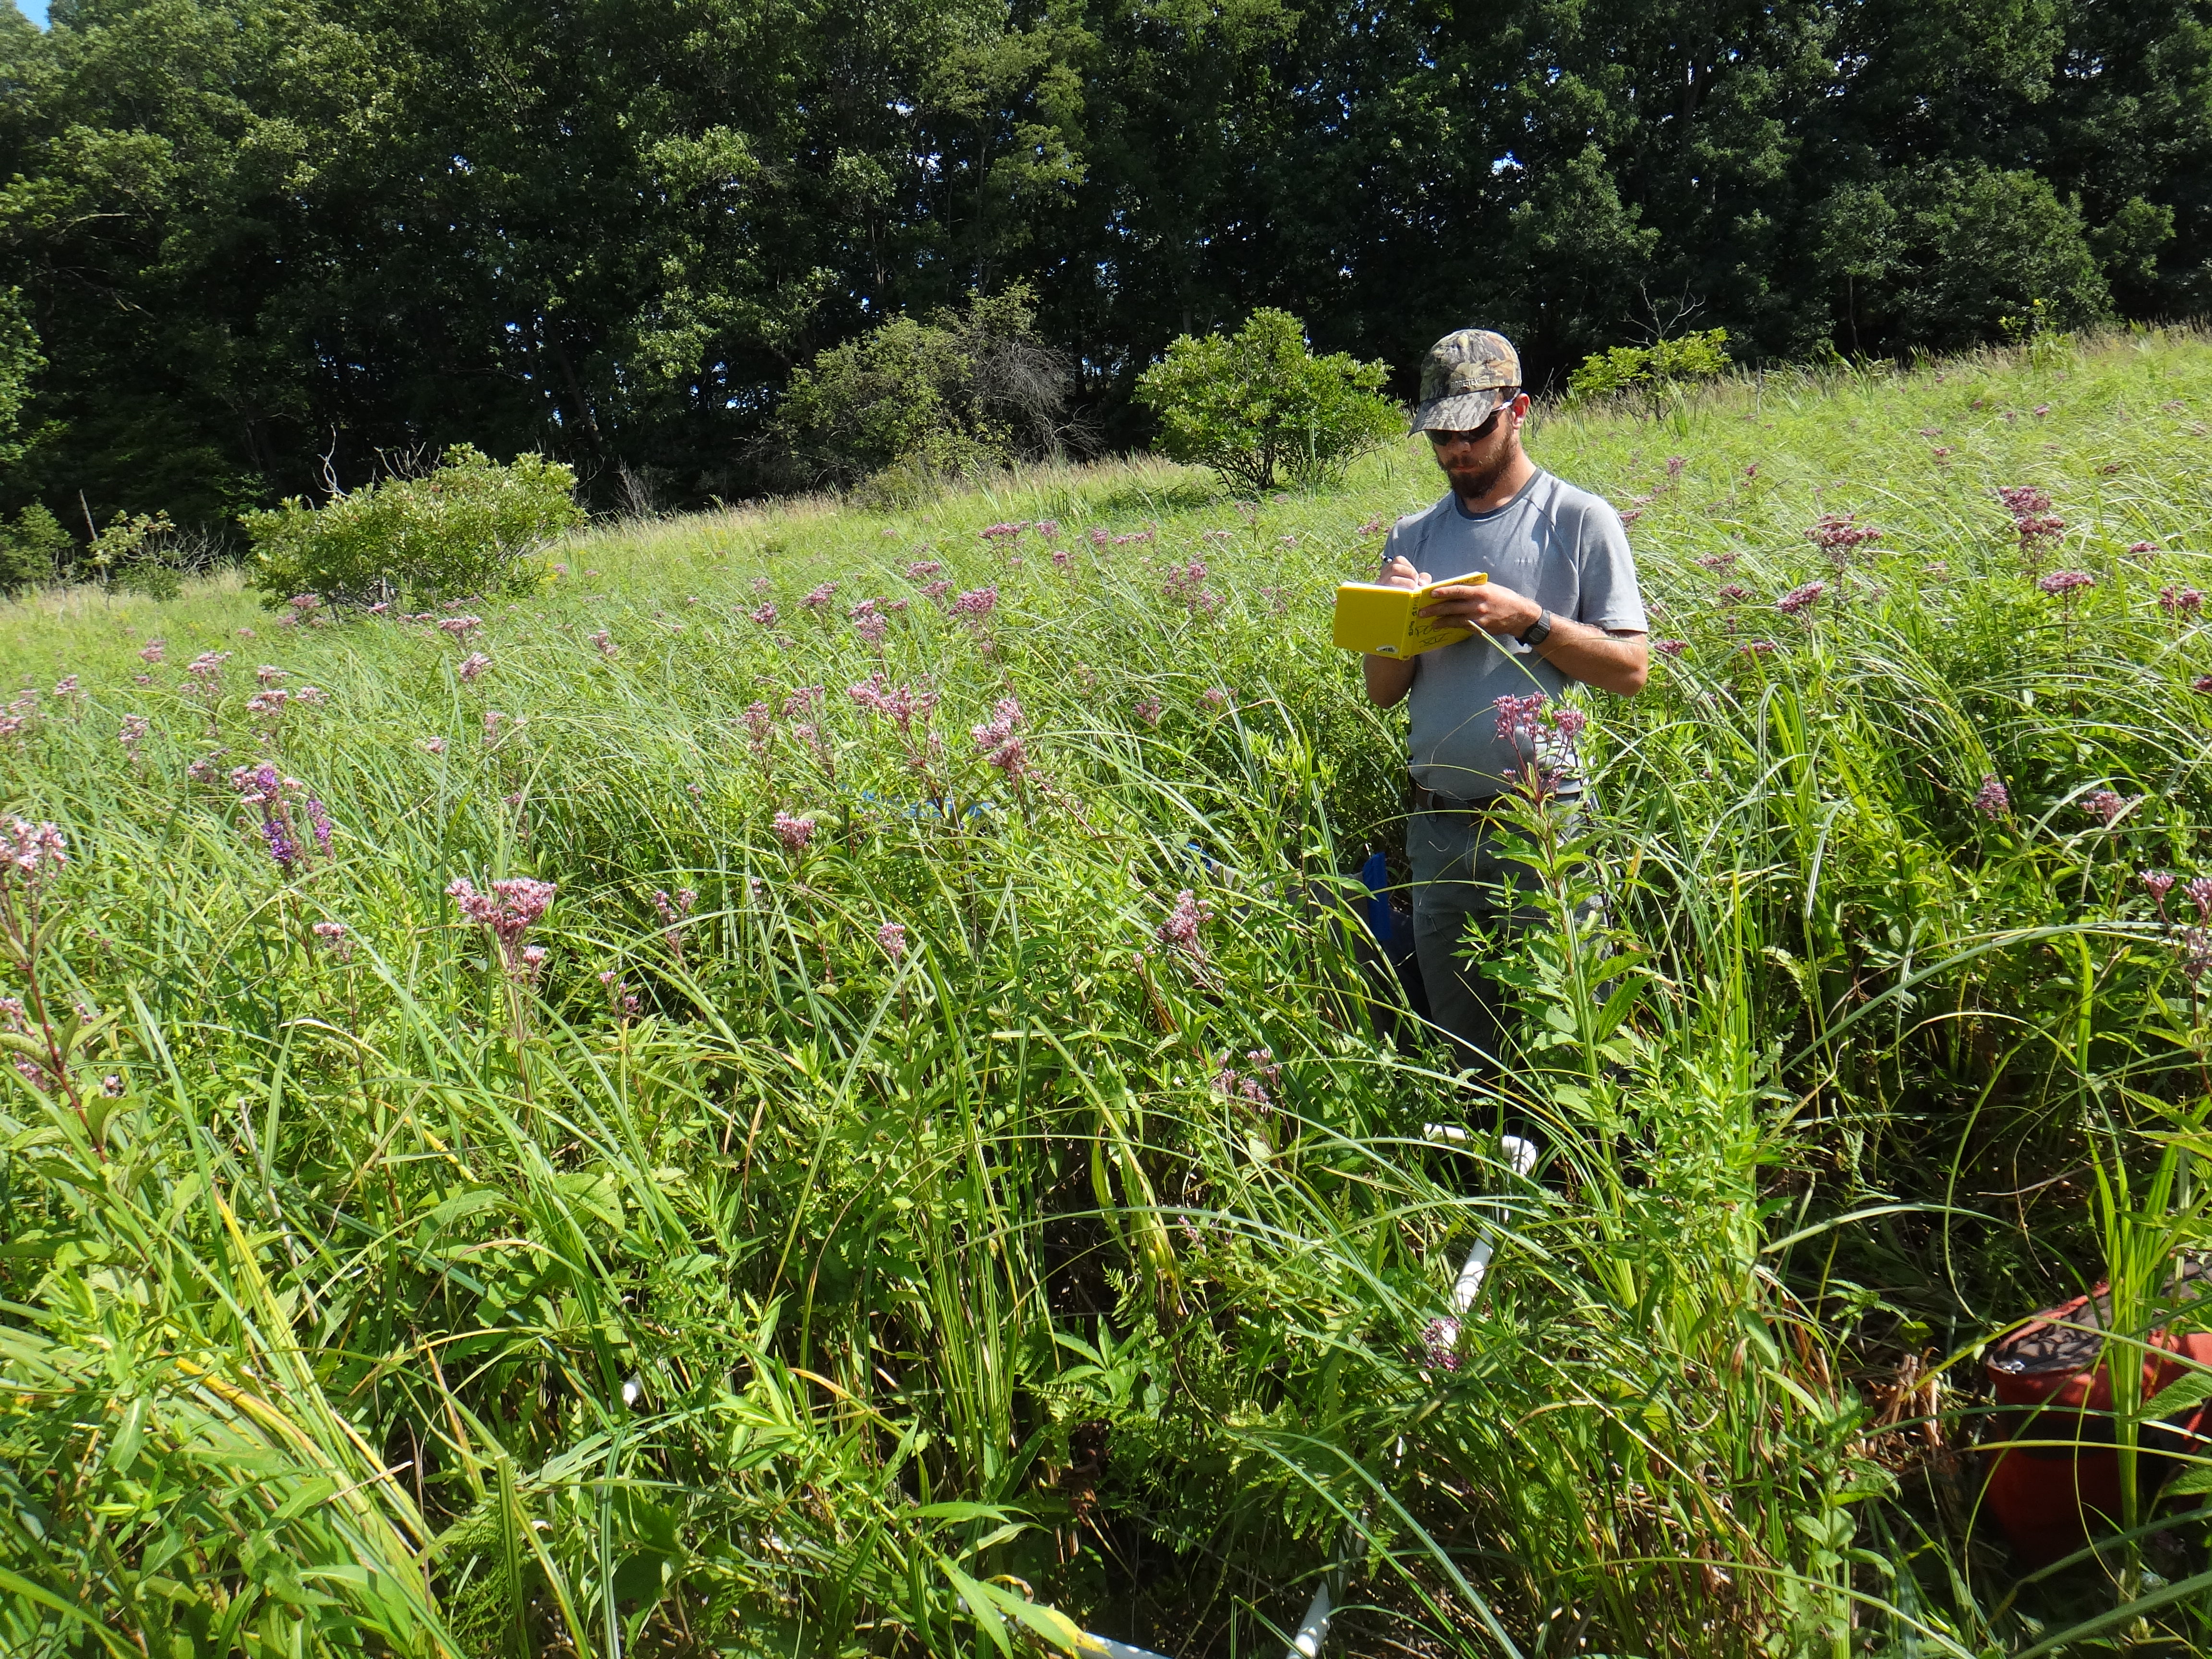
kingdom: Plantae
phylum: Tracheophyta
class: Magnoliopsida
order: Solanales
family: Convolvulaceae
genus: Convolvulus
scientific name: Convolvulus arvensis
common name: Field bindweed
